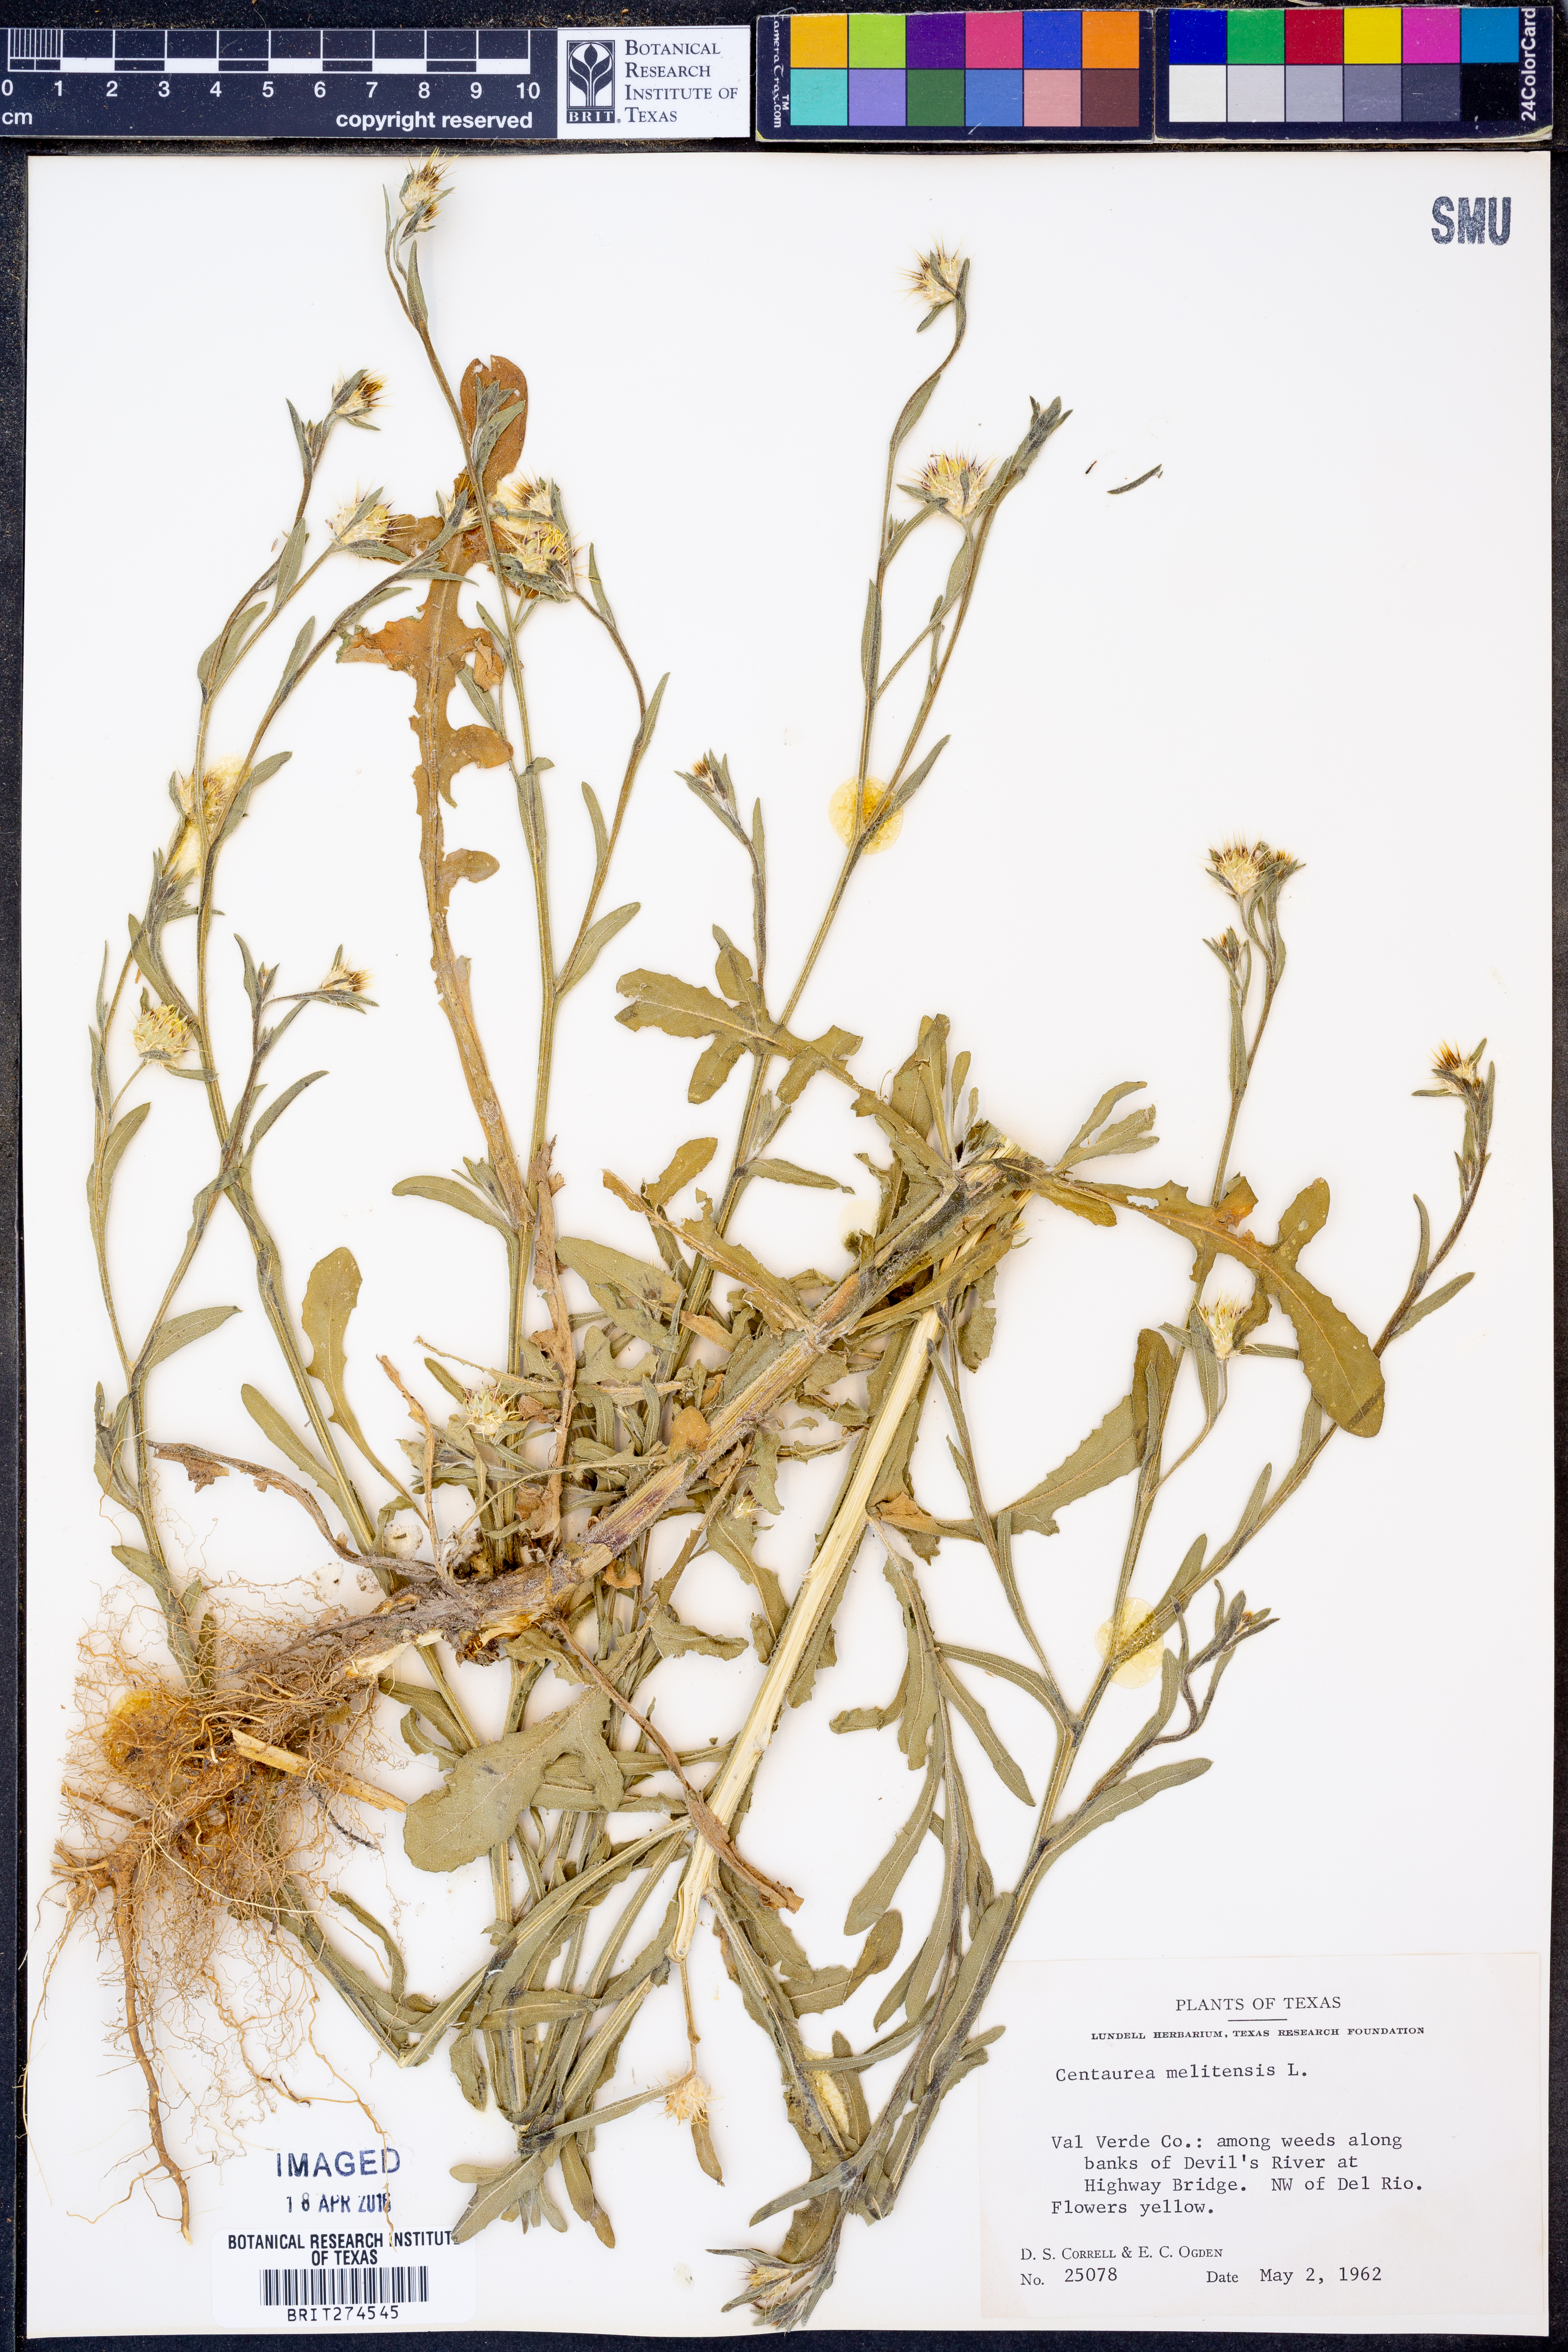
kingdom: Plantae
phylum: Tracheophyta
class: Magnoliopsida
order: Asterales
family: Asteraceae
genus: Centaurea
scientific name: Centaurea melitensis
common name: Maltese star-thistle
